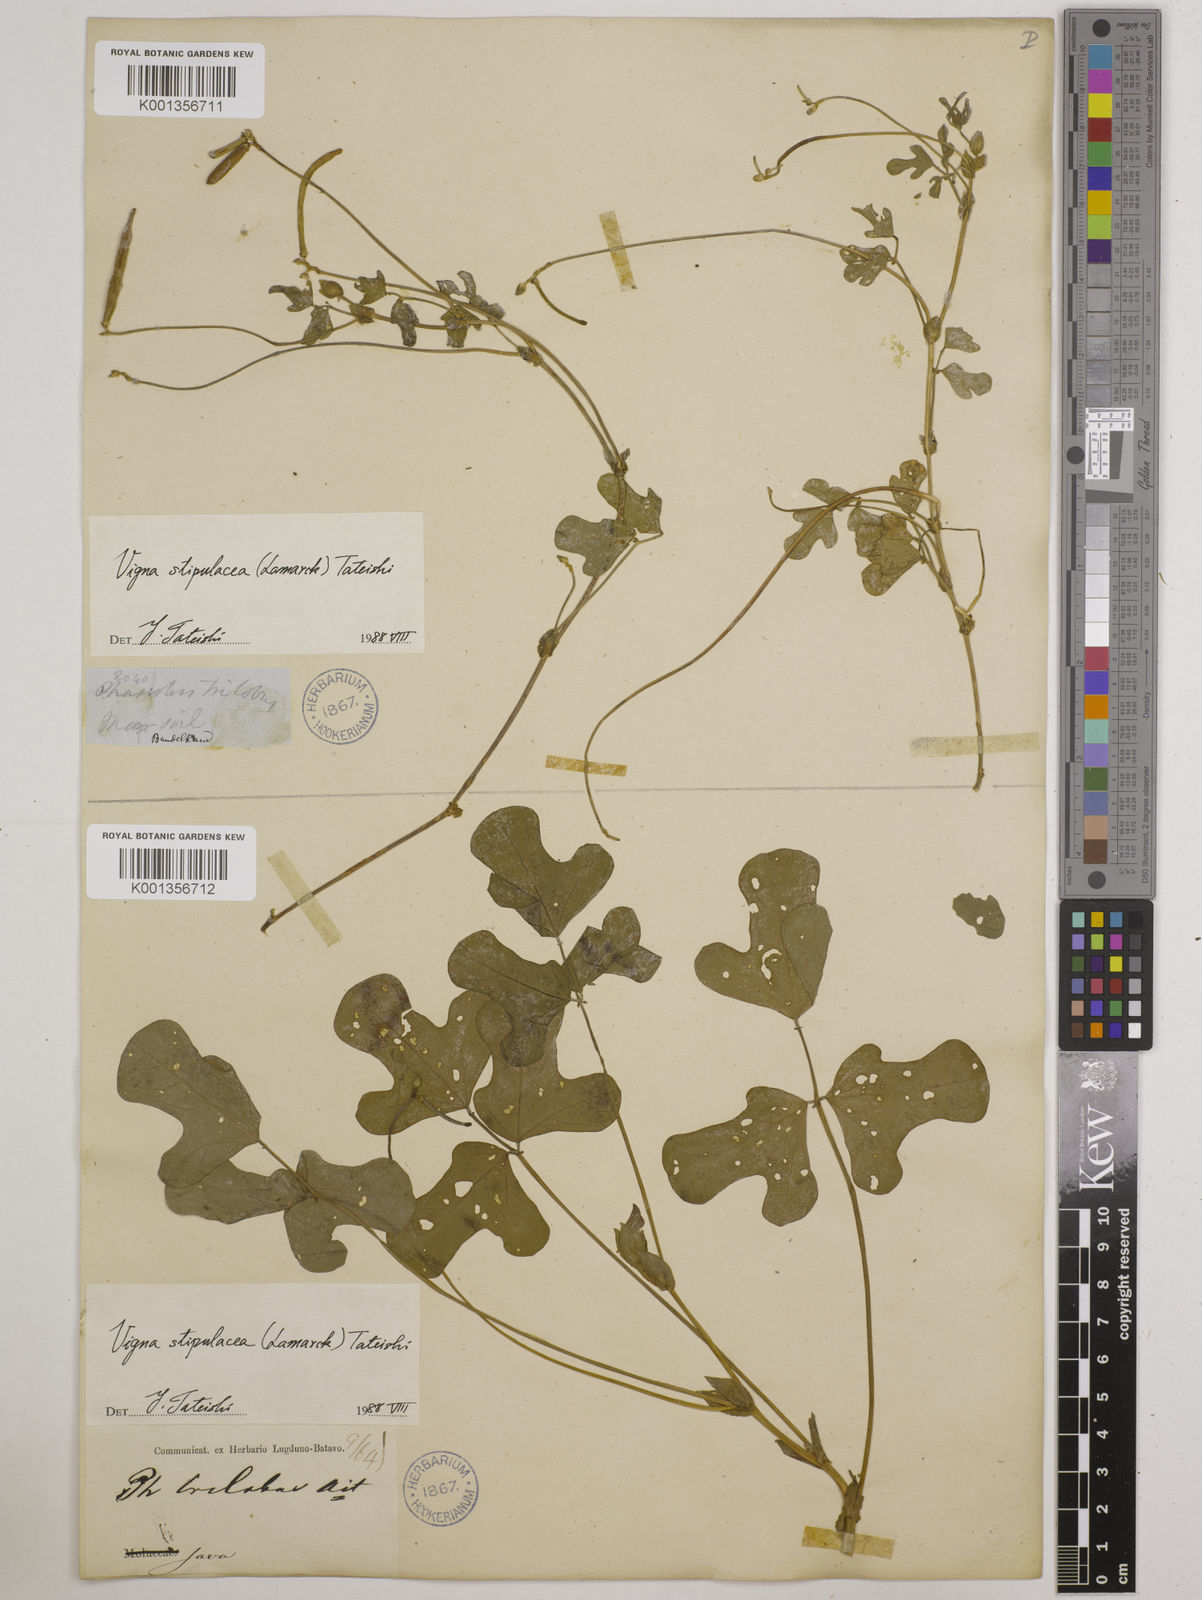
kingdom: Plantae
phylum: Tracheophyta
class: Magnoliopsida
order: Fabales
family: Fabaceae
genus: Pueraria
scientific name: Pueraria montana
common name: Kudzu
